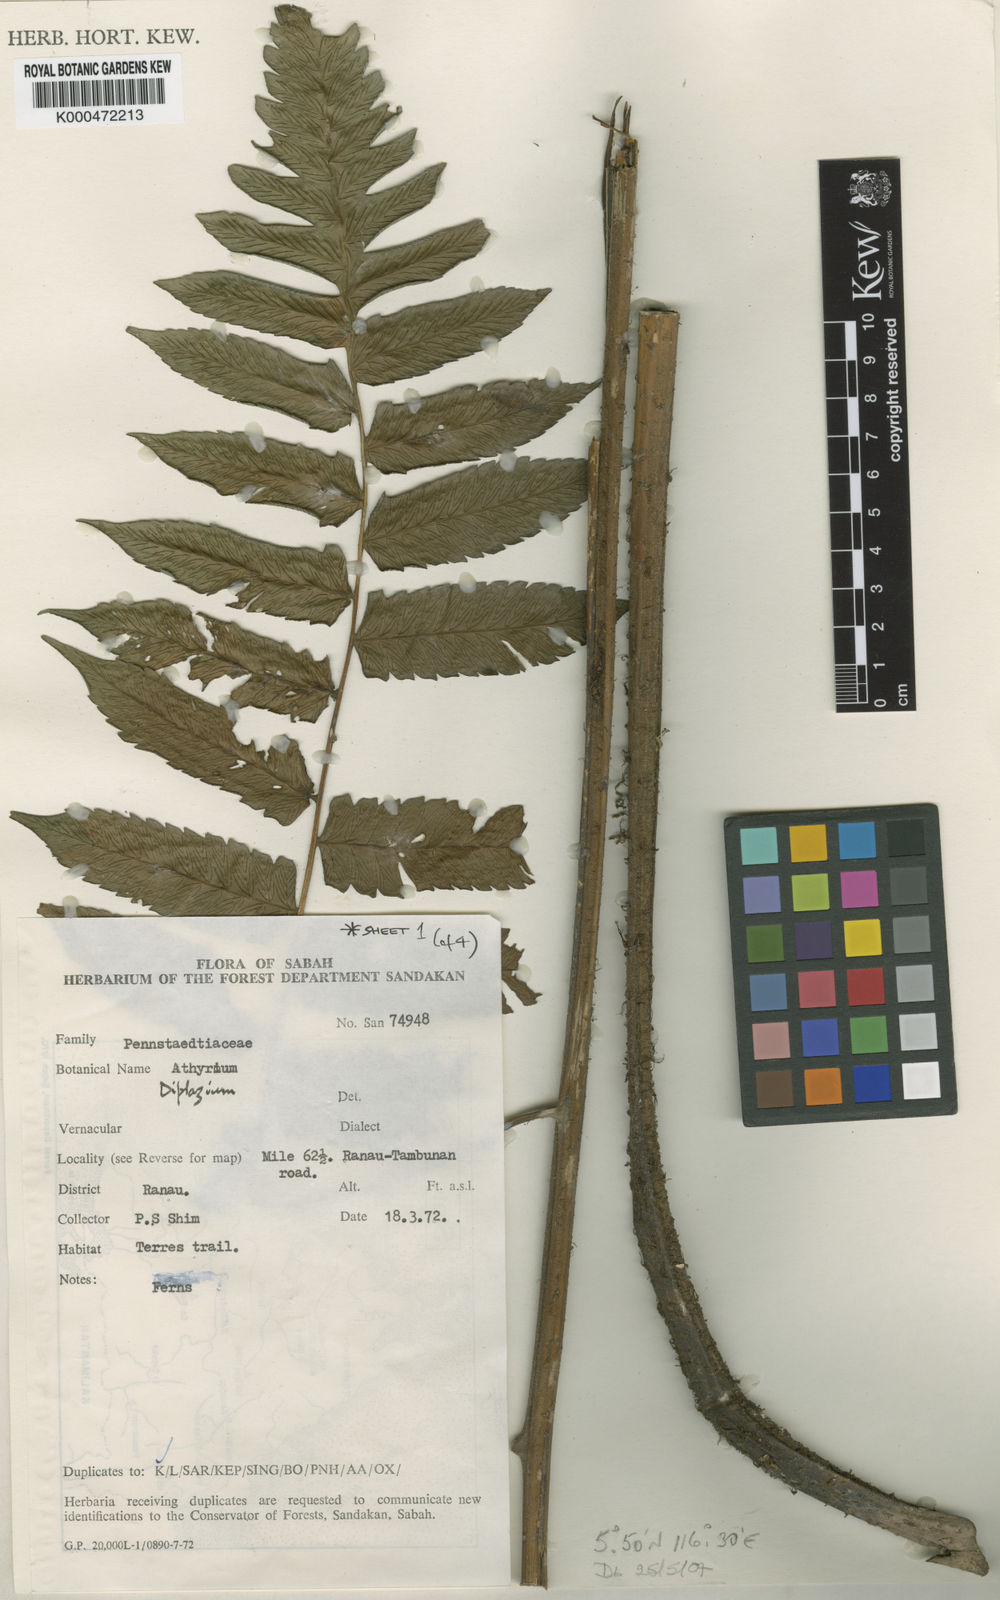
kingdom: Plantae
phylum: Tracheophyta
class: Polypodiopsida
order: Polypodiales
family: Athyriaceae
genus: Diplazium
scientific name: Diplazium dilatatum
